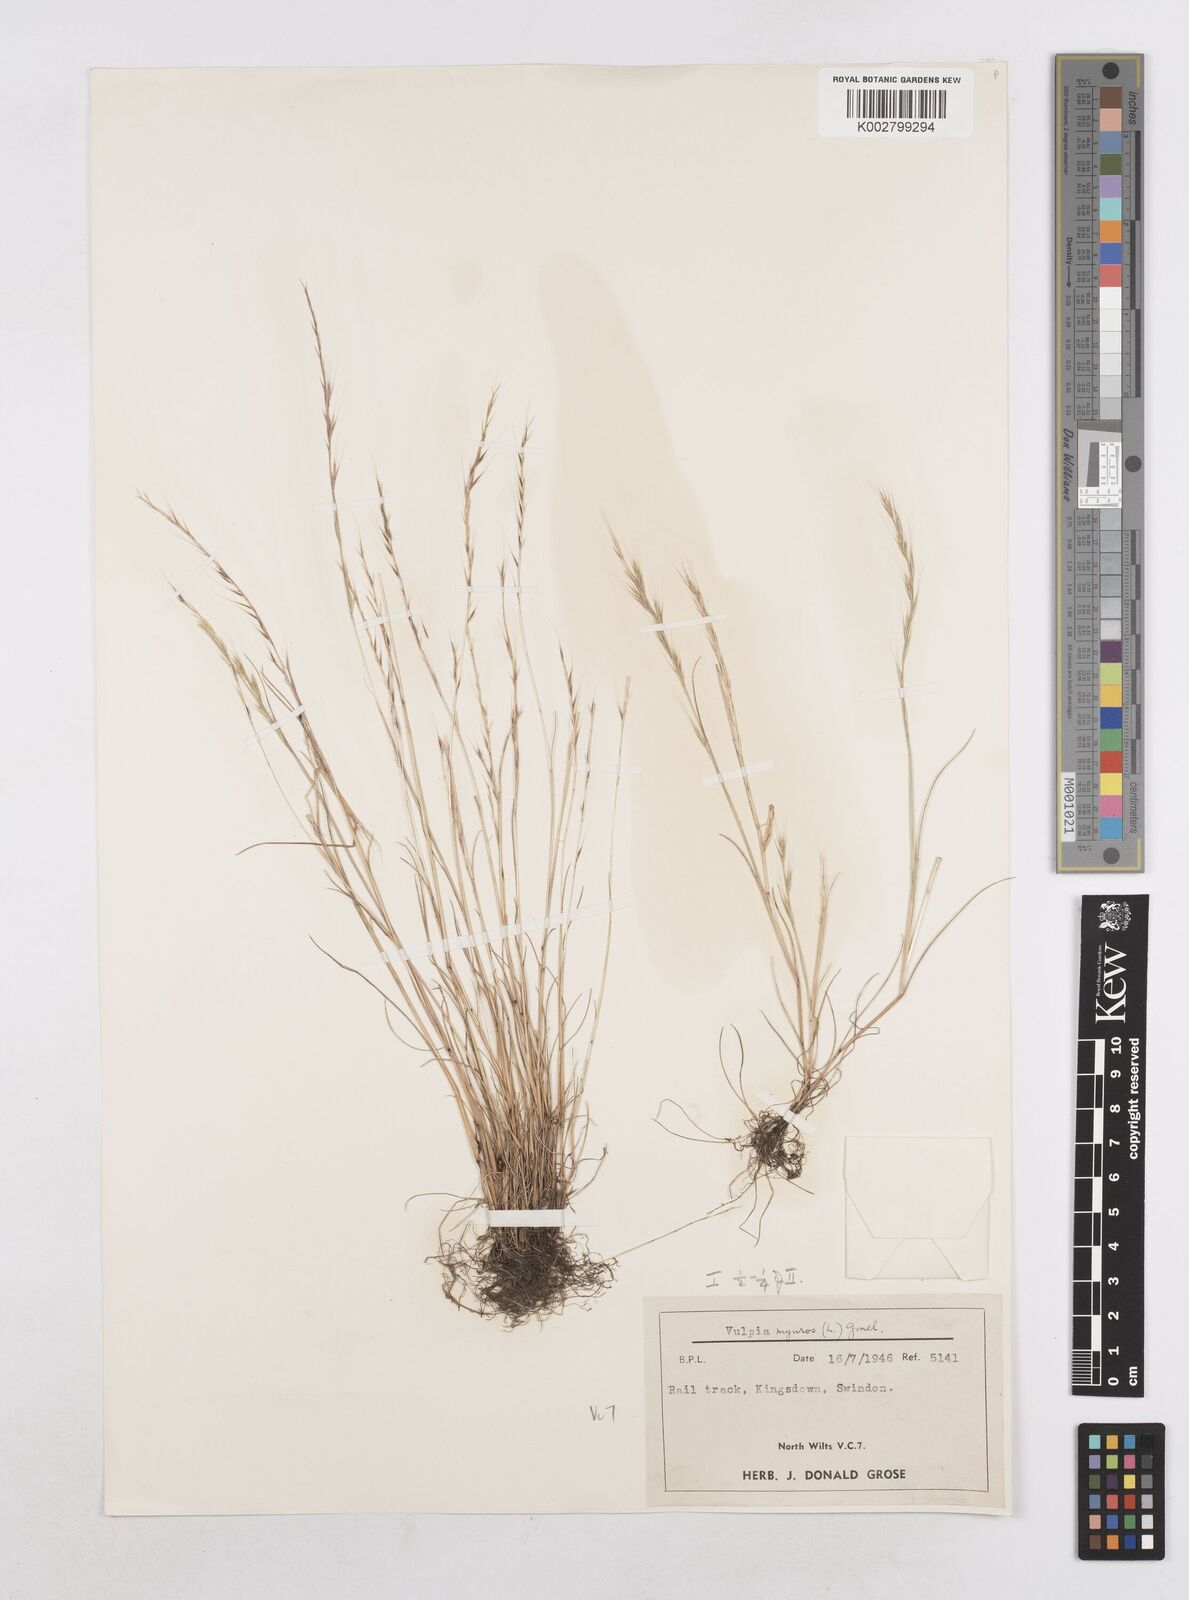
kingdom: Plantae
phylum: Tracheophyta
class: Liliopsida
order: Poales
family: Poaceae
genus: Festuca
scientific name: Festuca myuros
